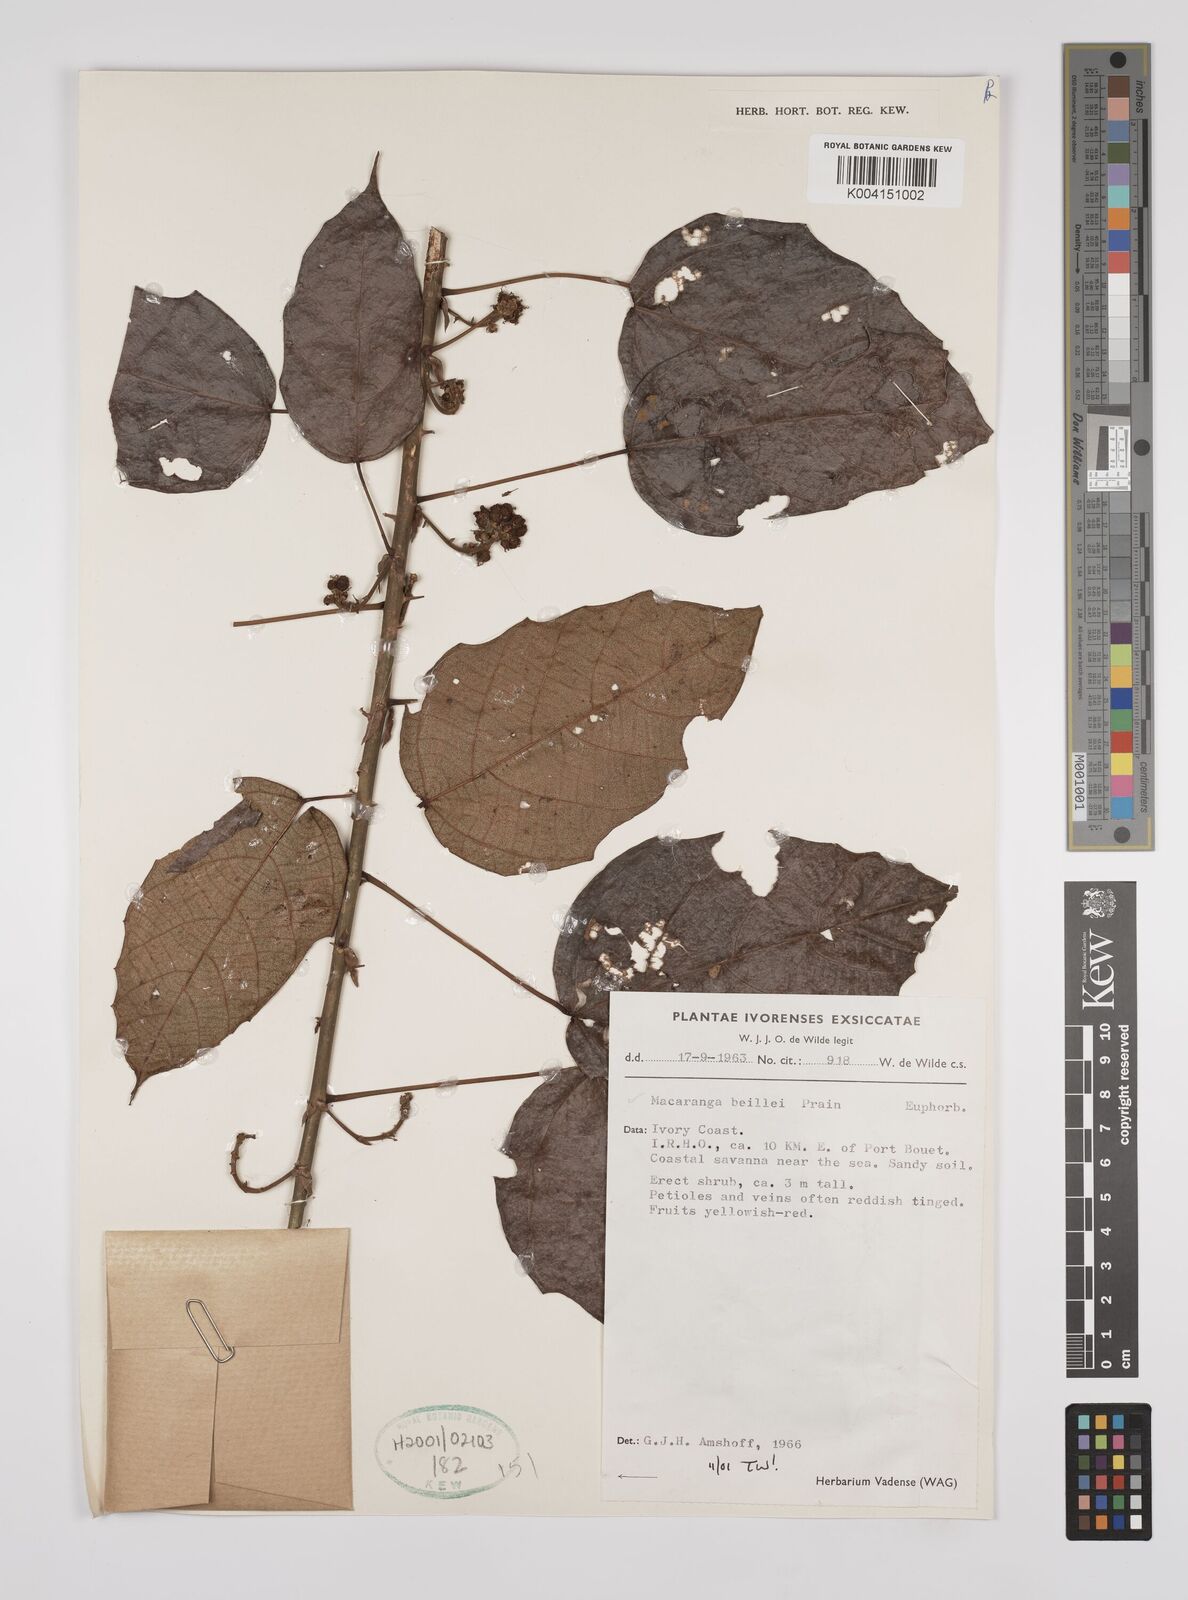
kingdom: Plantae
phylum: Tracheophyta
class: Magnoliopsida
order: Malpighiales
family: Euphorbiaceae
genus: Macaranga
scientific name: Macaranga beillei
